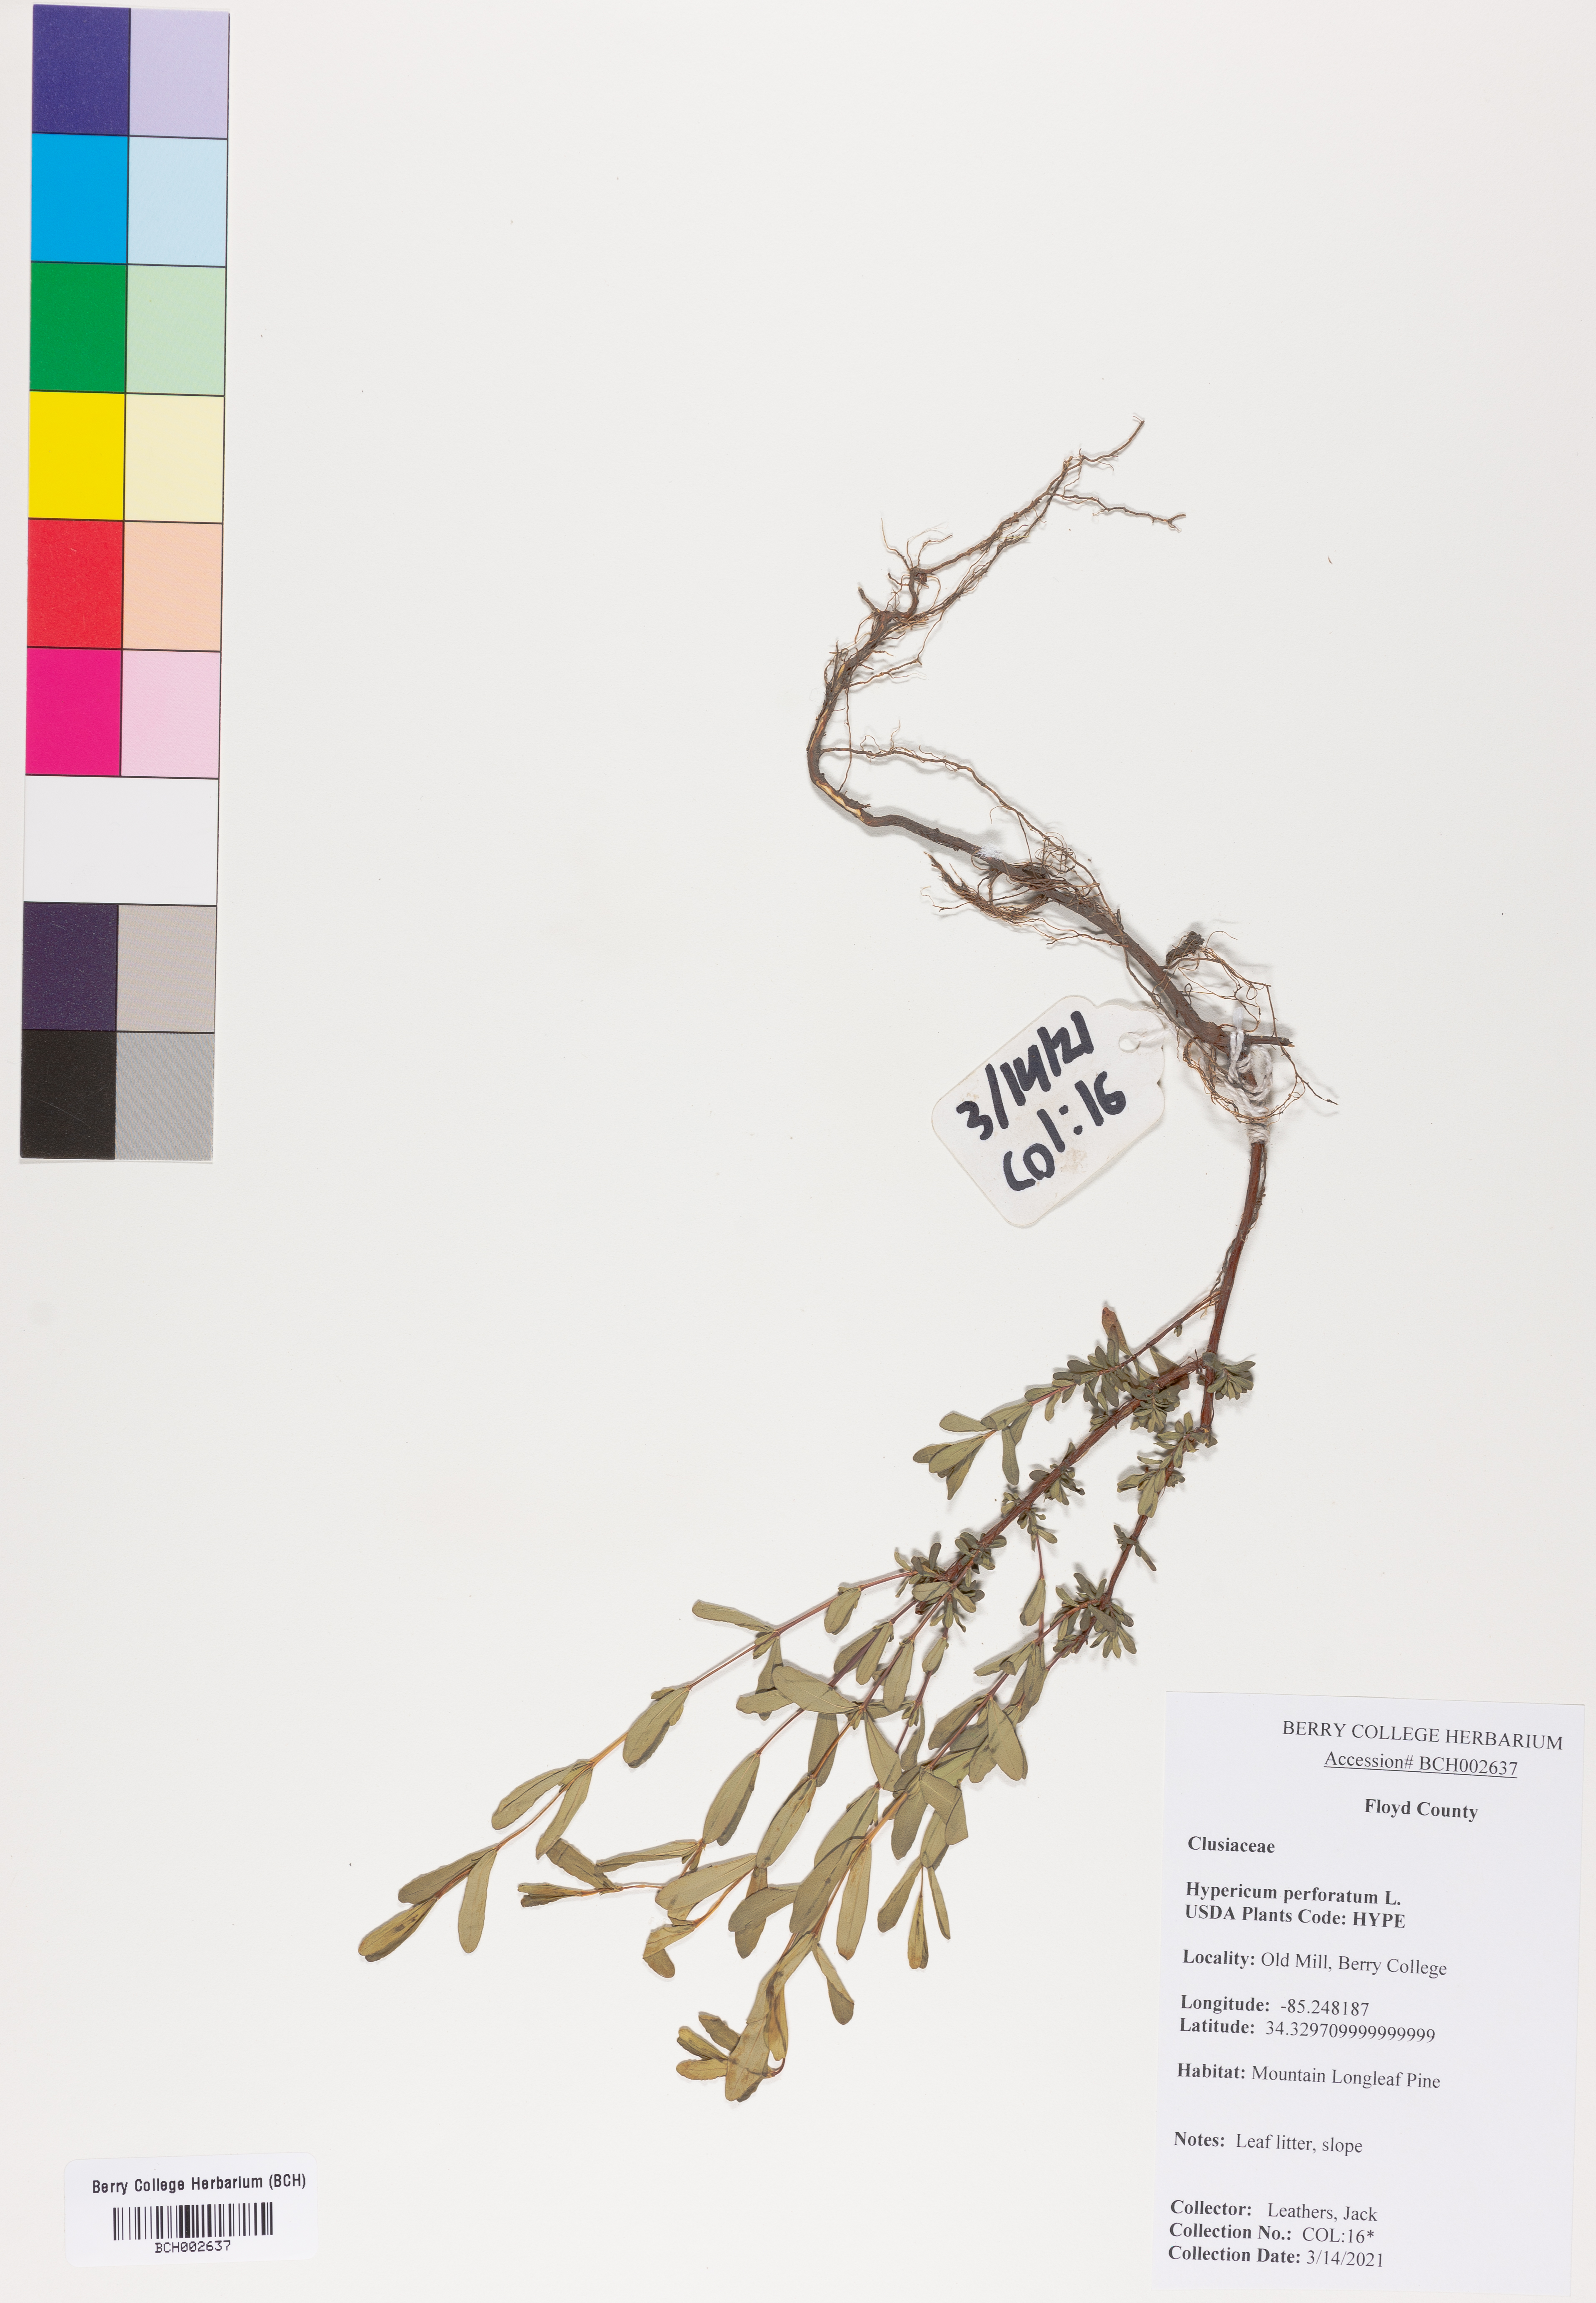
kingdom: Plantae
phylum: Tracheophyta
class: Magnoliopsida
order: Malpighiales
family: Hypericaceae
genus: Hypericum
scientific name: Hypericum perforatum
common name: Common st. johnswort
